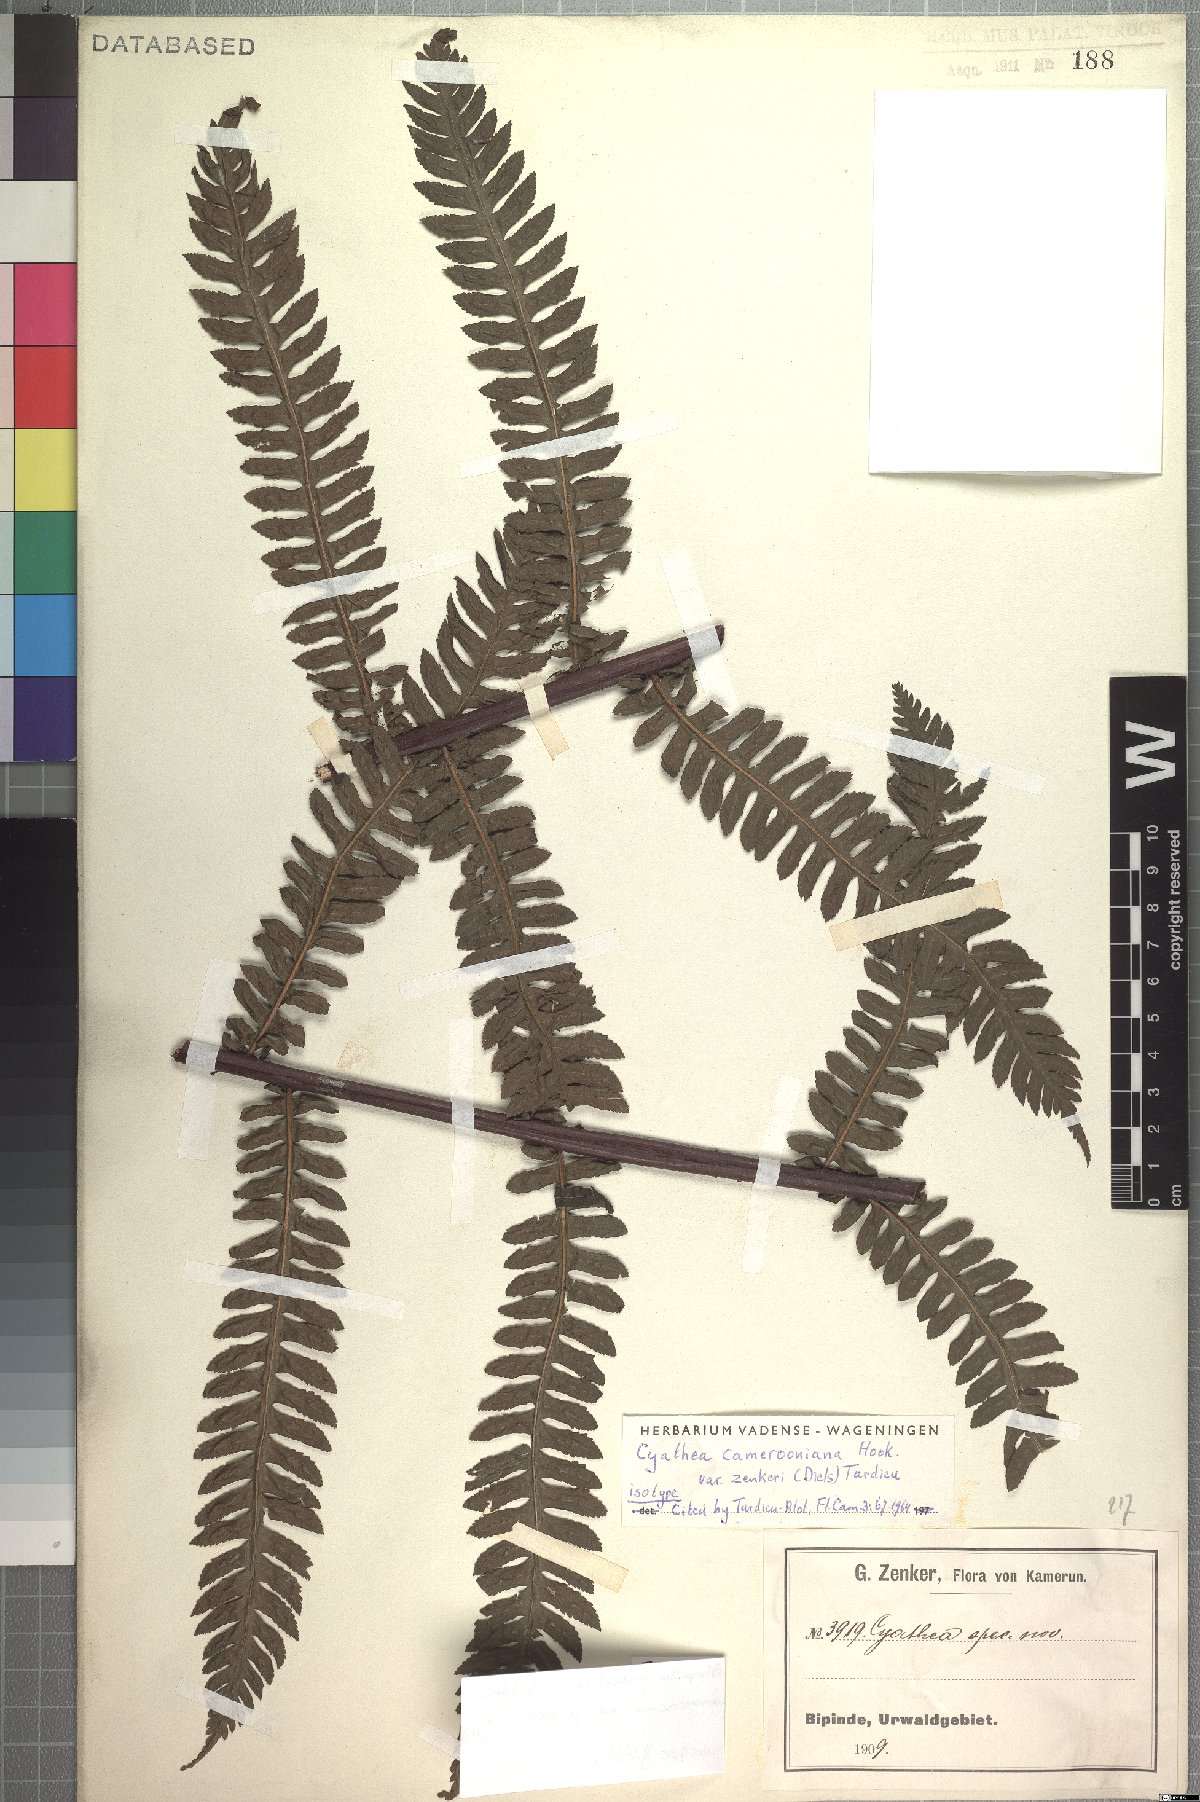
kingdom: Plantae
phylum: Tracheophyta
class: Polypodiopsida
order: Cyatheales
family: Cyatheaceae
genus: Alsophila
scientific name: Alsophila camerooniana
